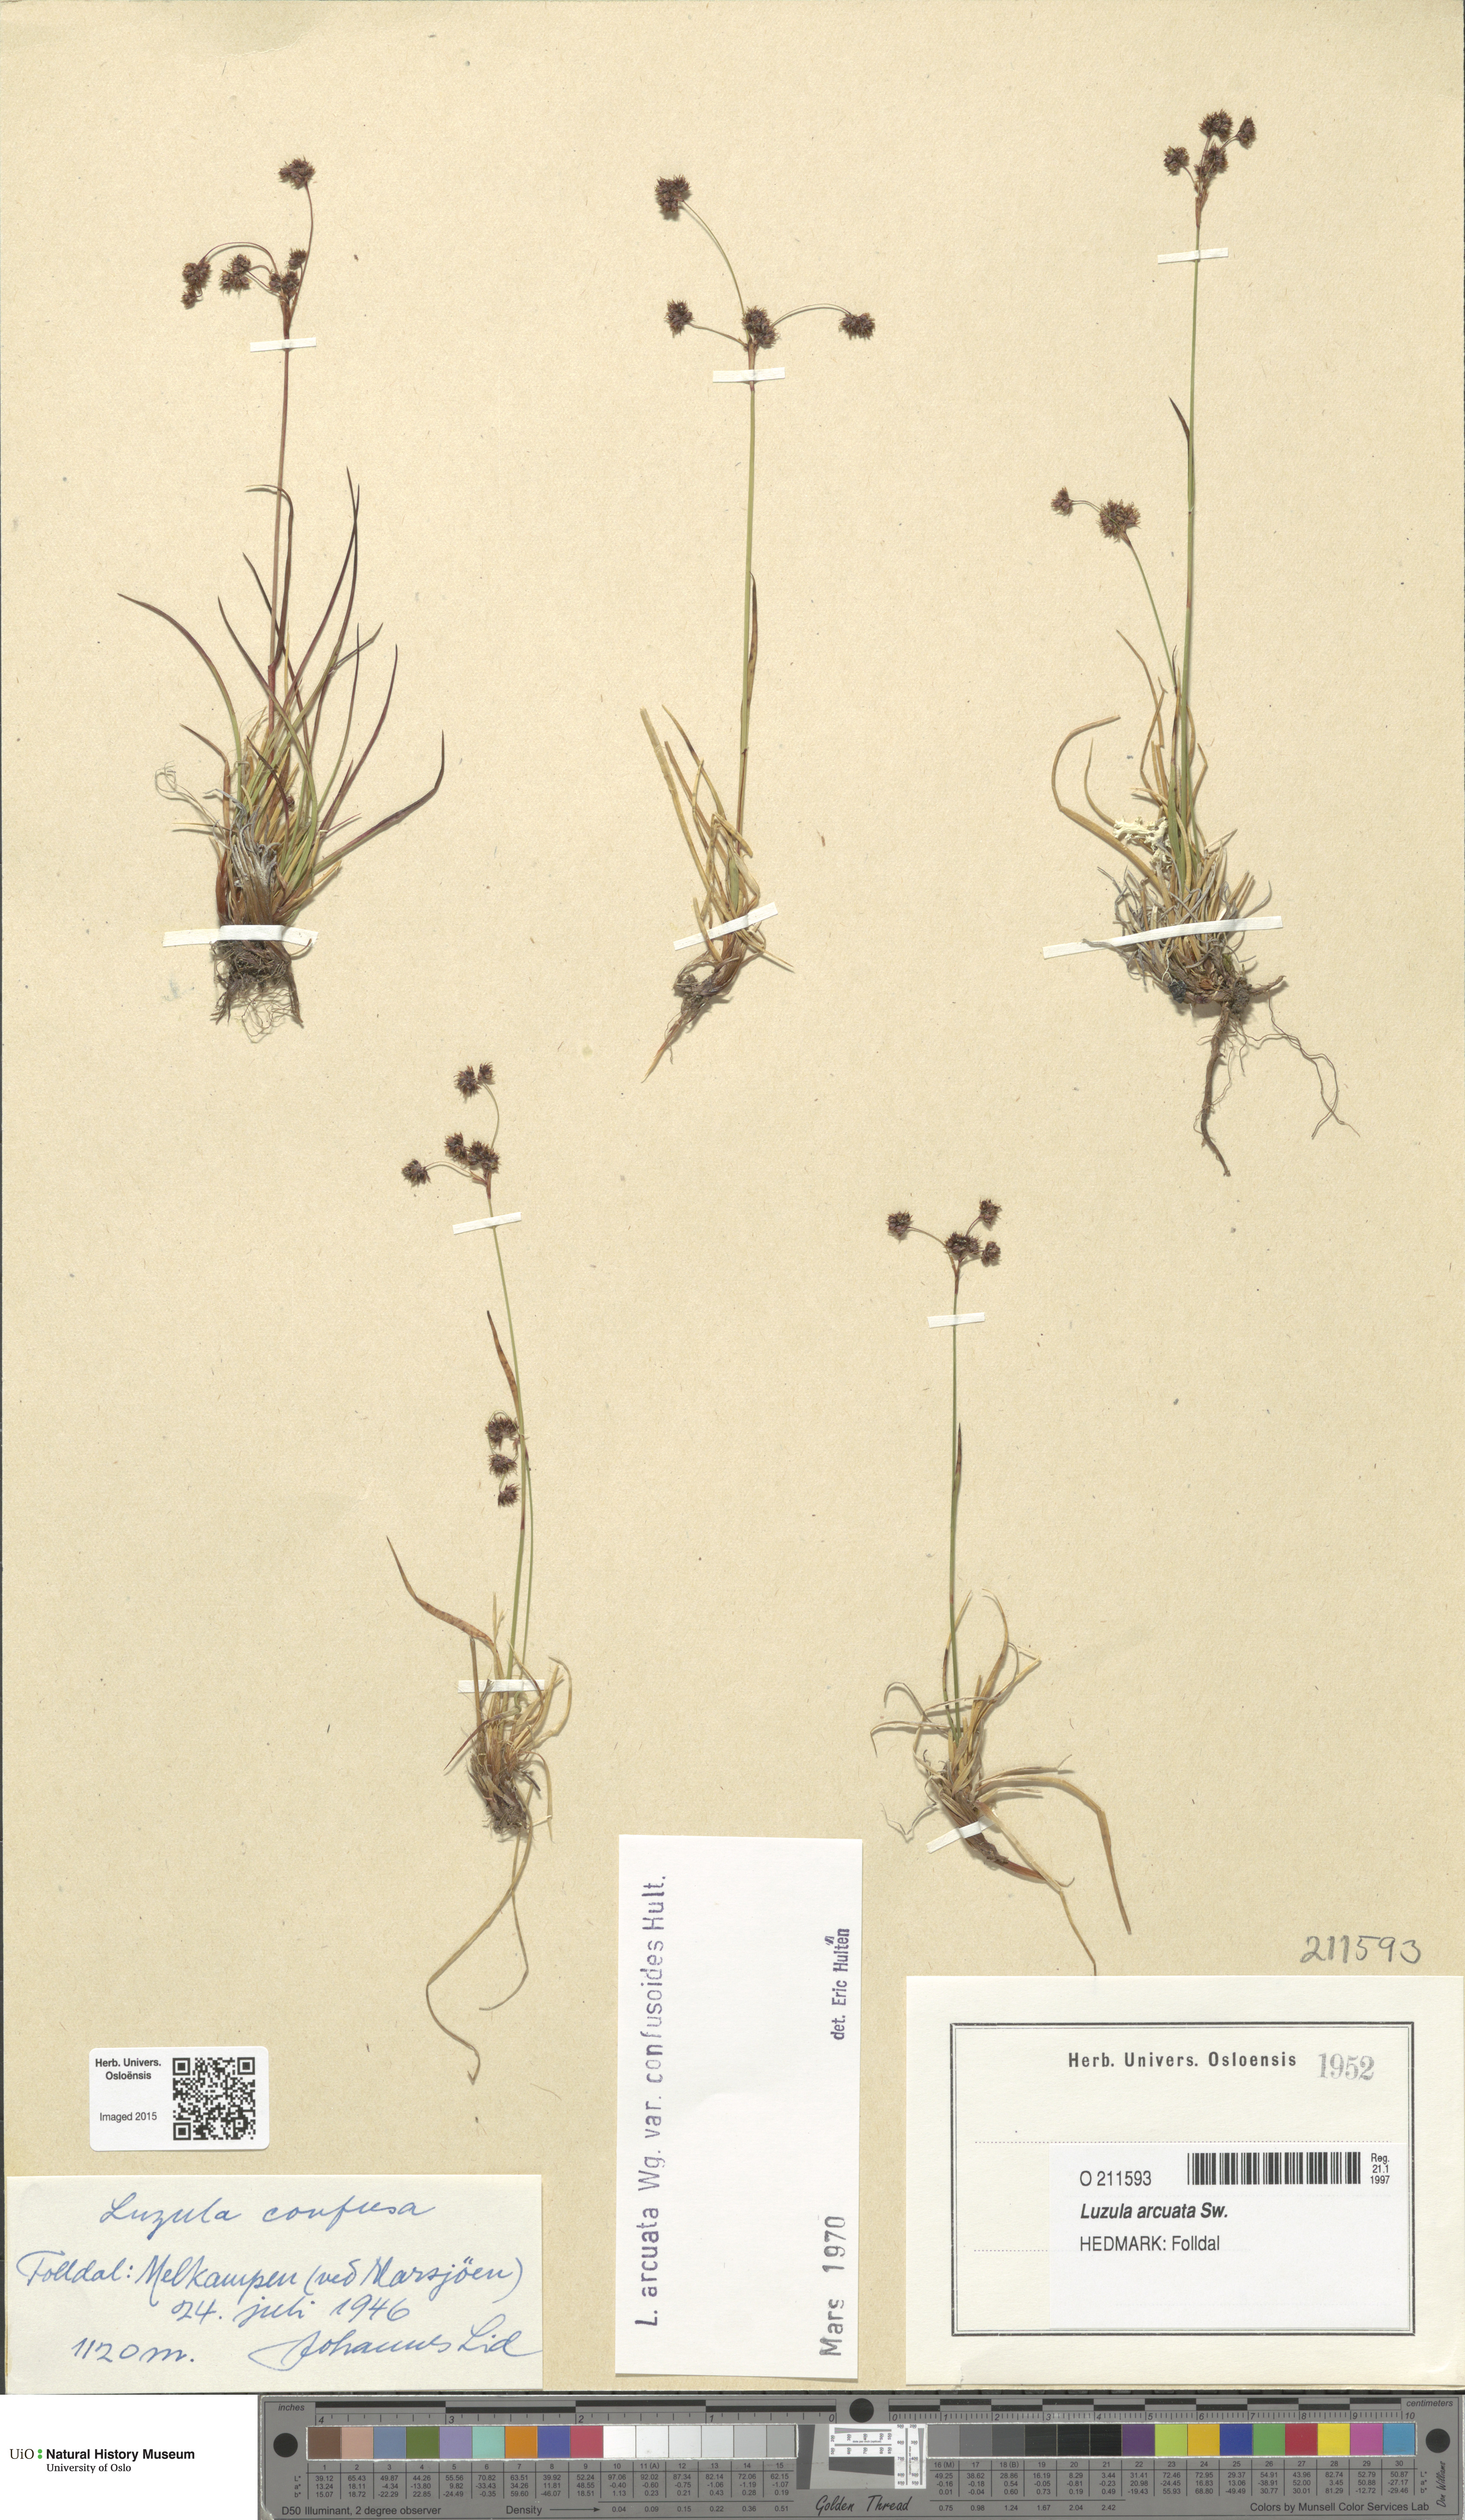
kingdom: Plantae
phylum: Tracheophyta
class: Liliopsida
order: Poales
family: Juncaceae
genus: Luzula
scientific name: Luzula arcuata
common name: Curved wood-rush
